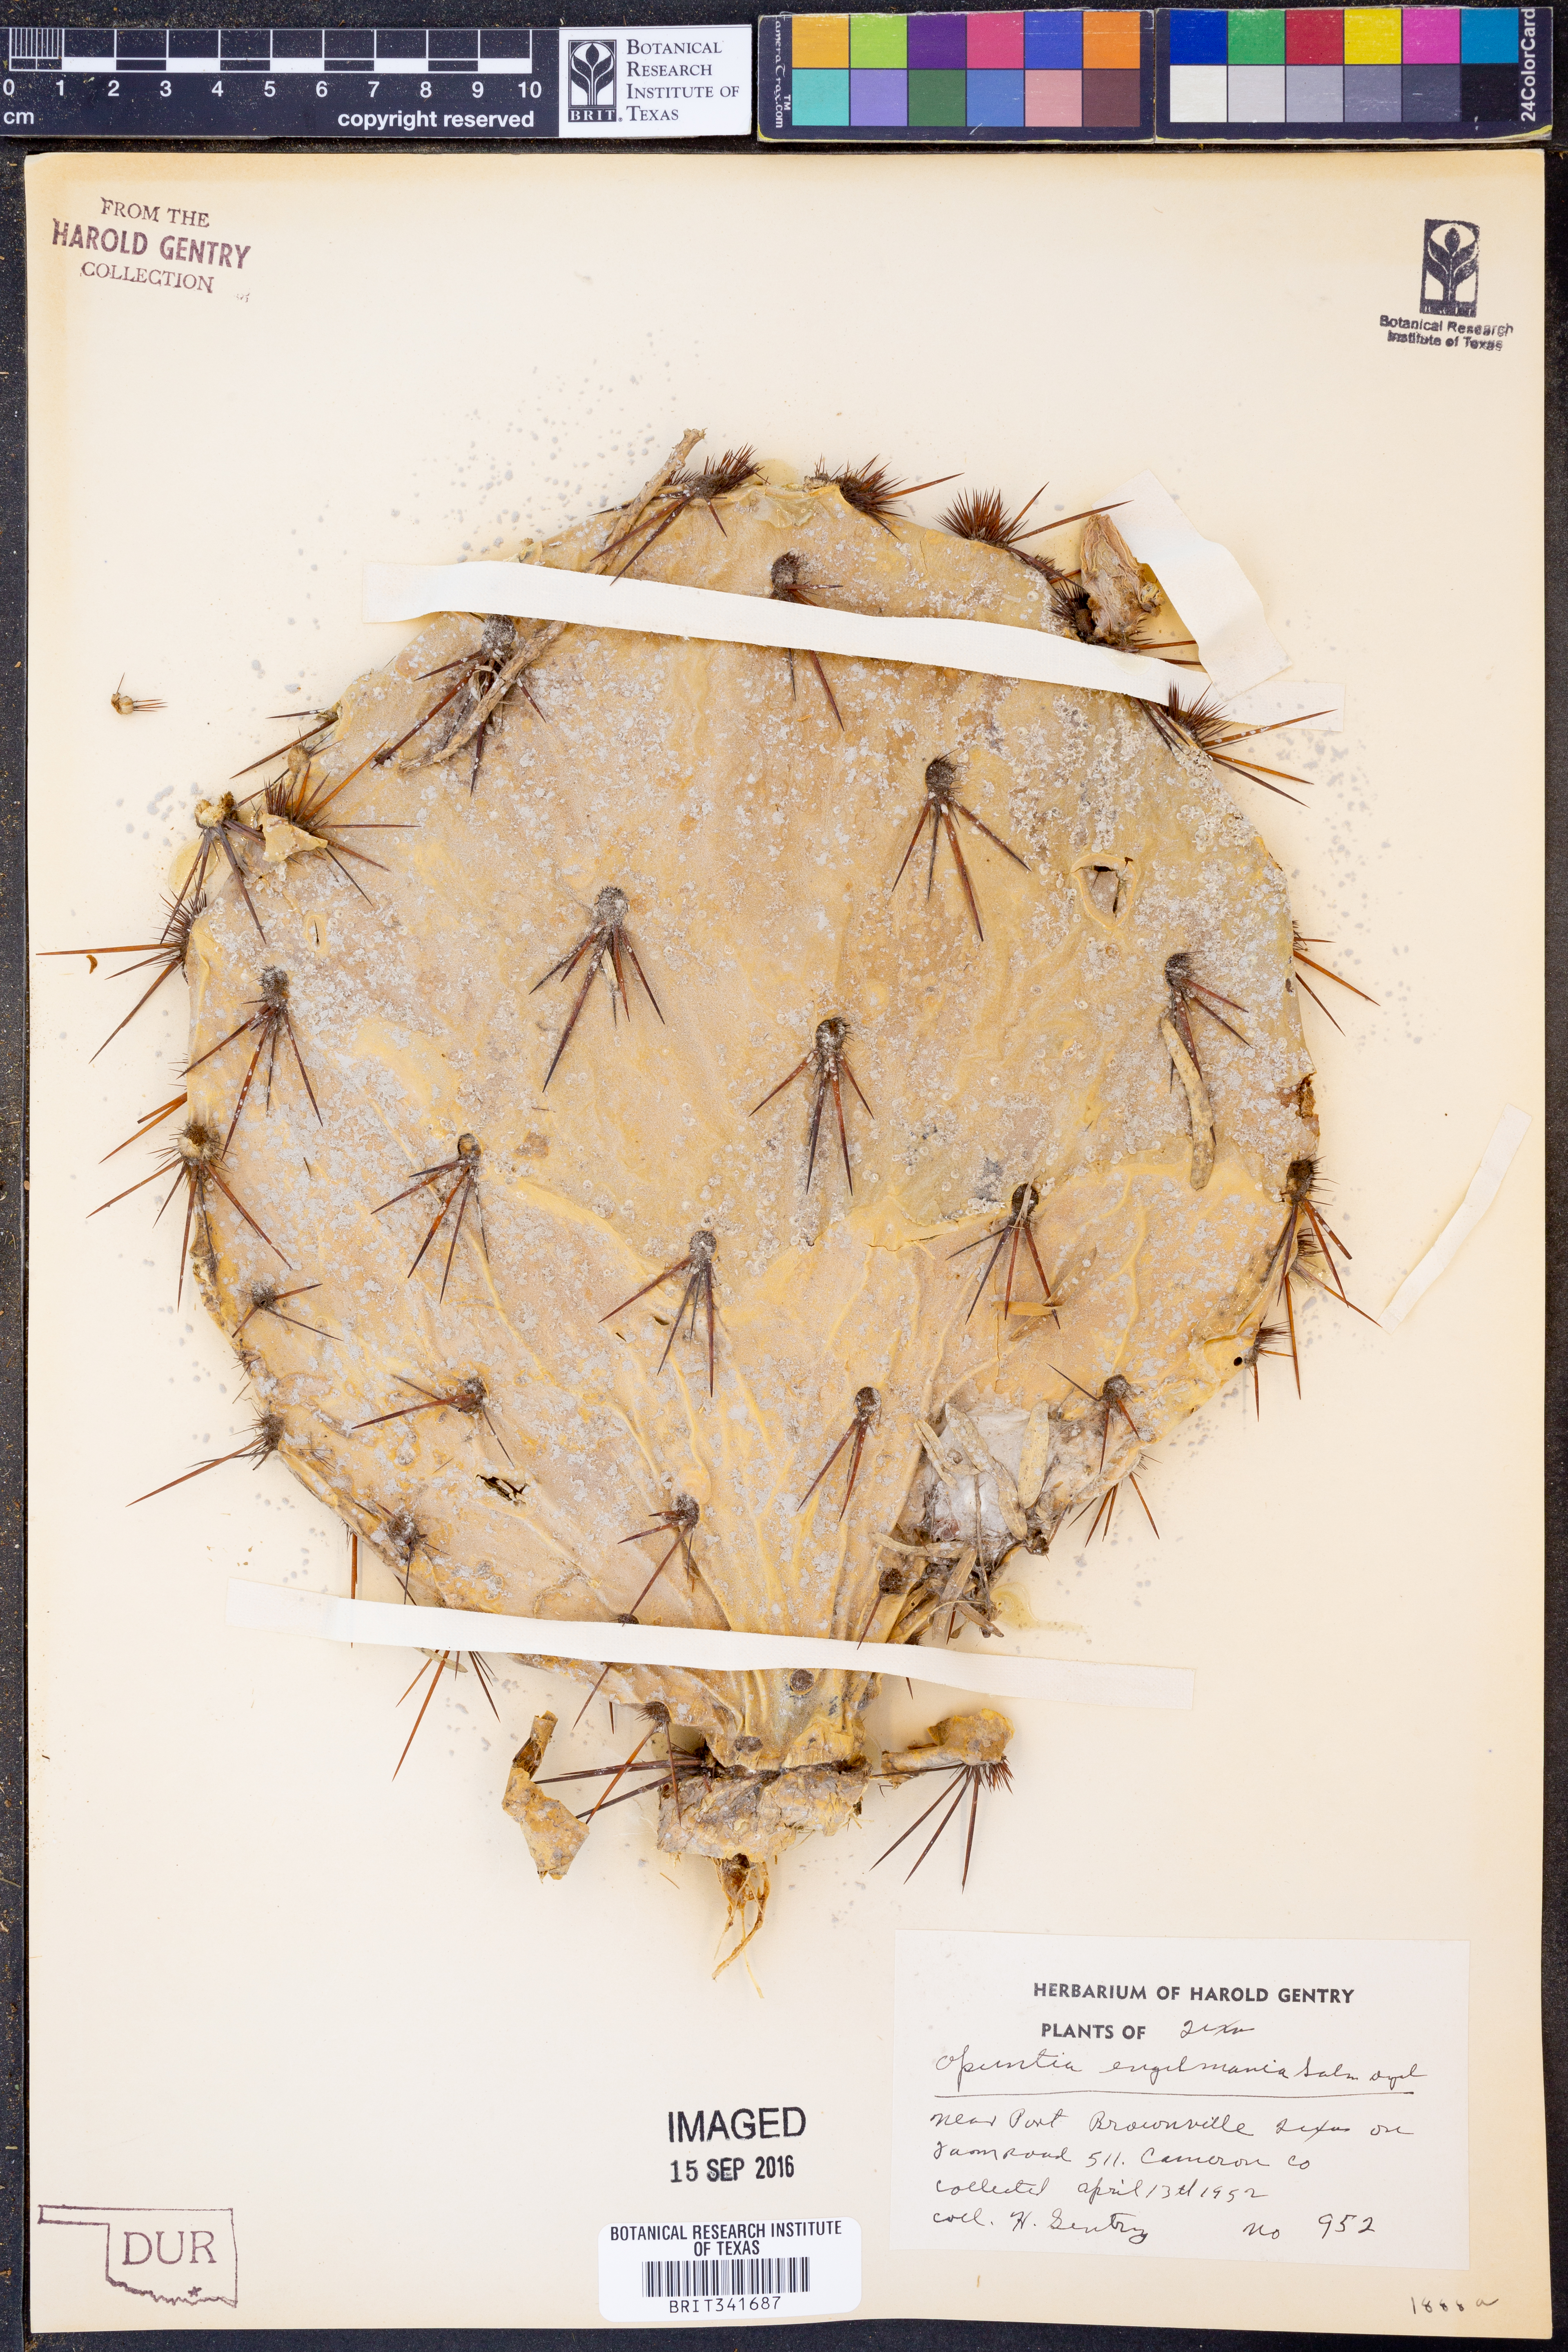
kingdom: Plantae
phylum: Tracheophyta
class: Magnoliopsida
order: Caryophyllales
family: Cactaceae
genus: Opuntia
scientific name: Opuntia engelmannii
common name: Cactus-apple
